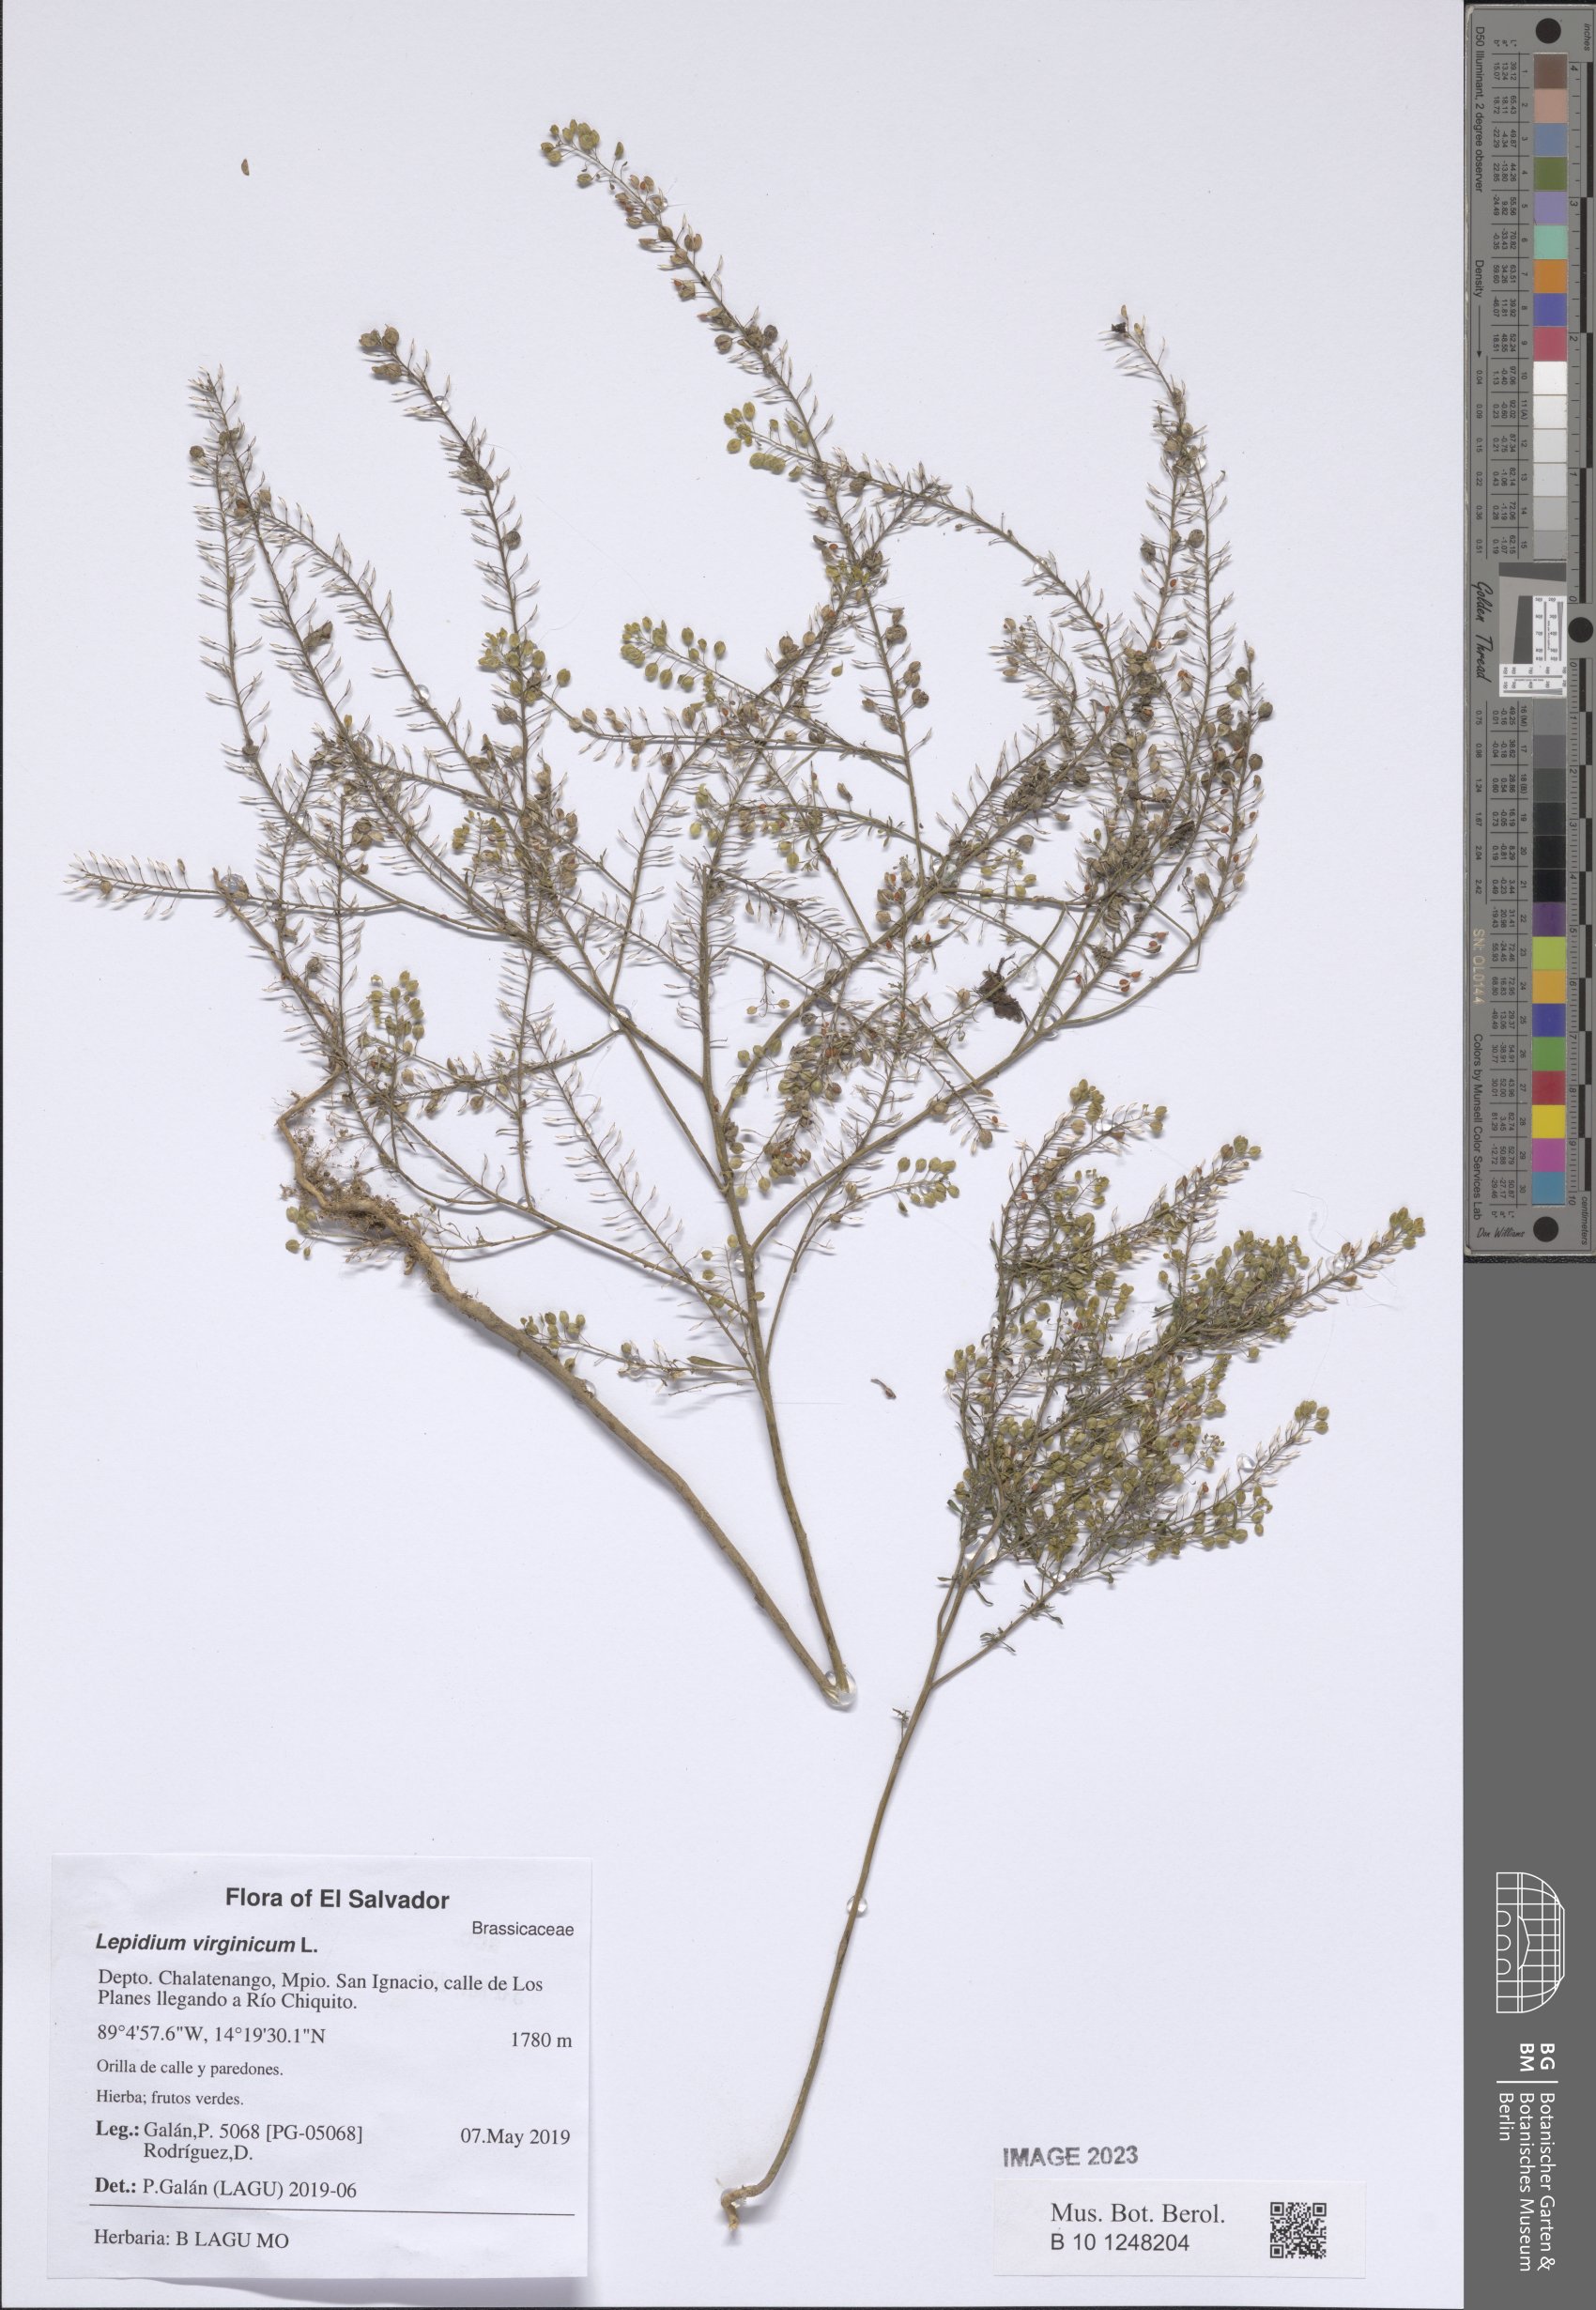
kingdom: Plantae
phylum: Tracheophyta
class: Magnoliopsida
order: Brassicales
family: Brassicaceae
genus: Lepidium
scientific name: Lepidium virginicum
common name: Least pepperwort
